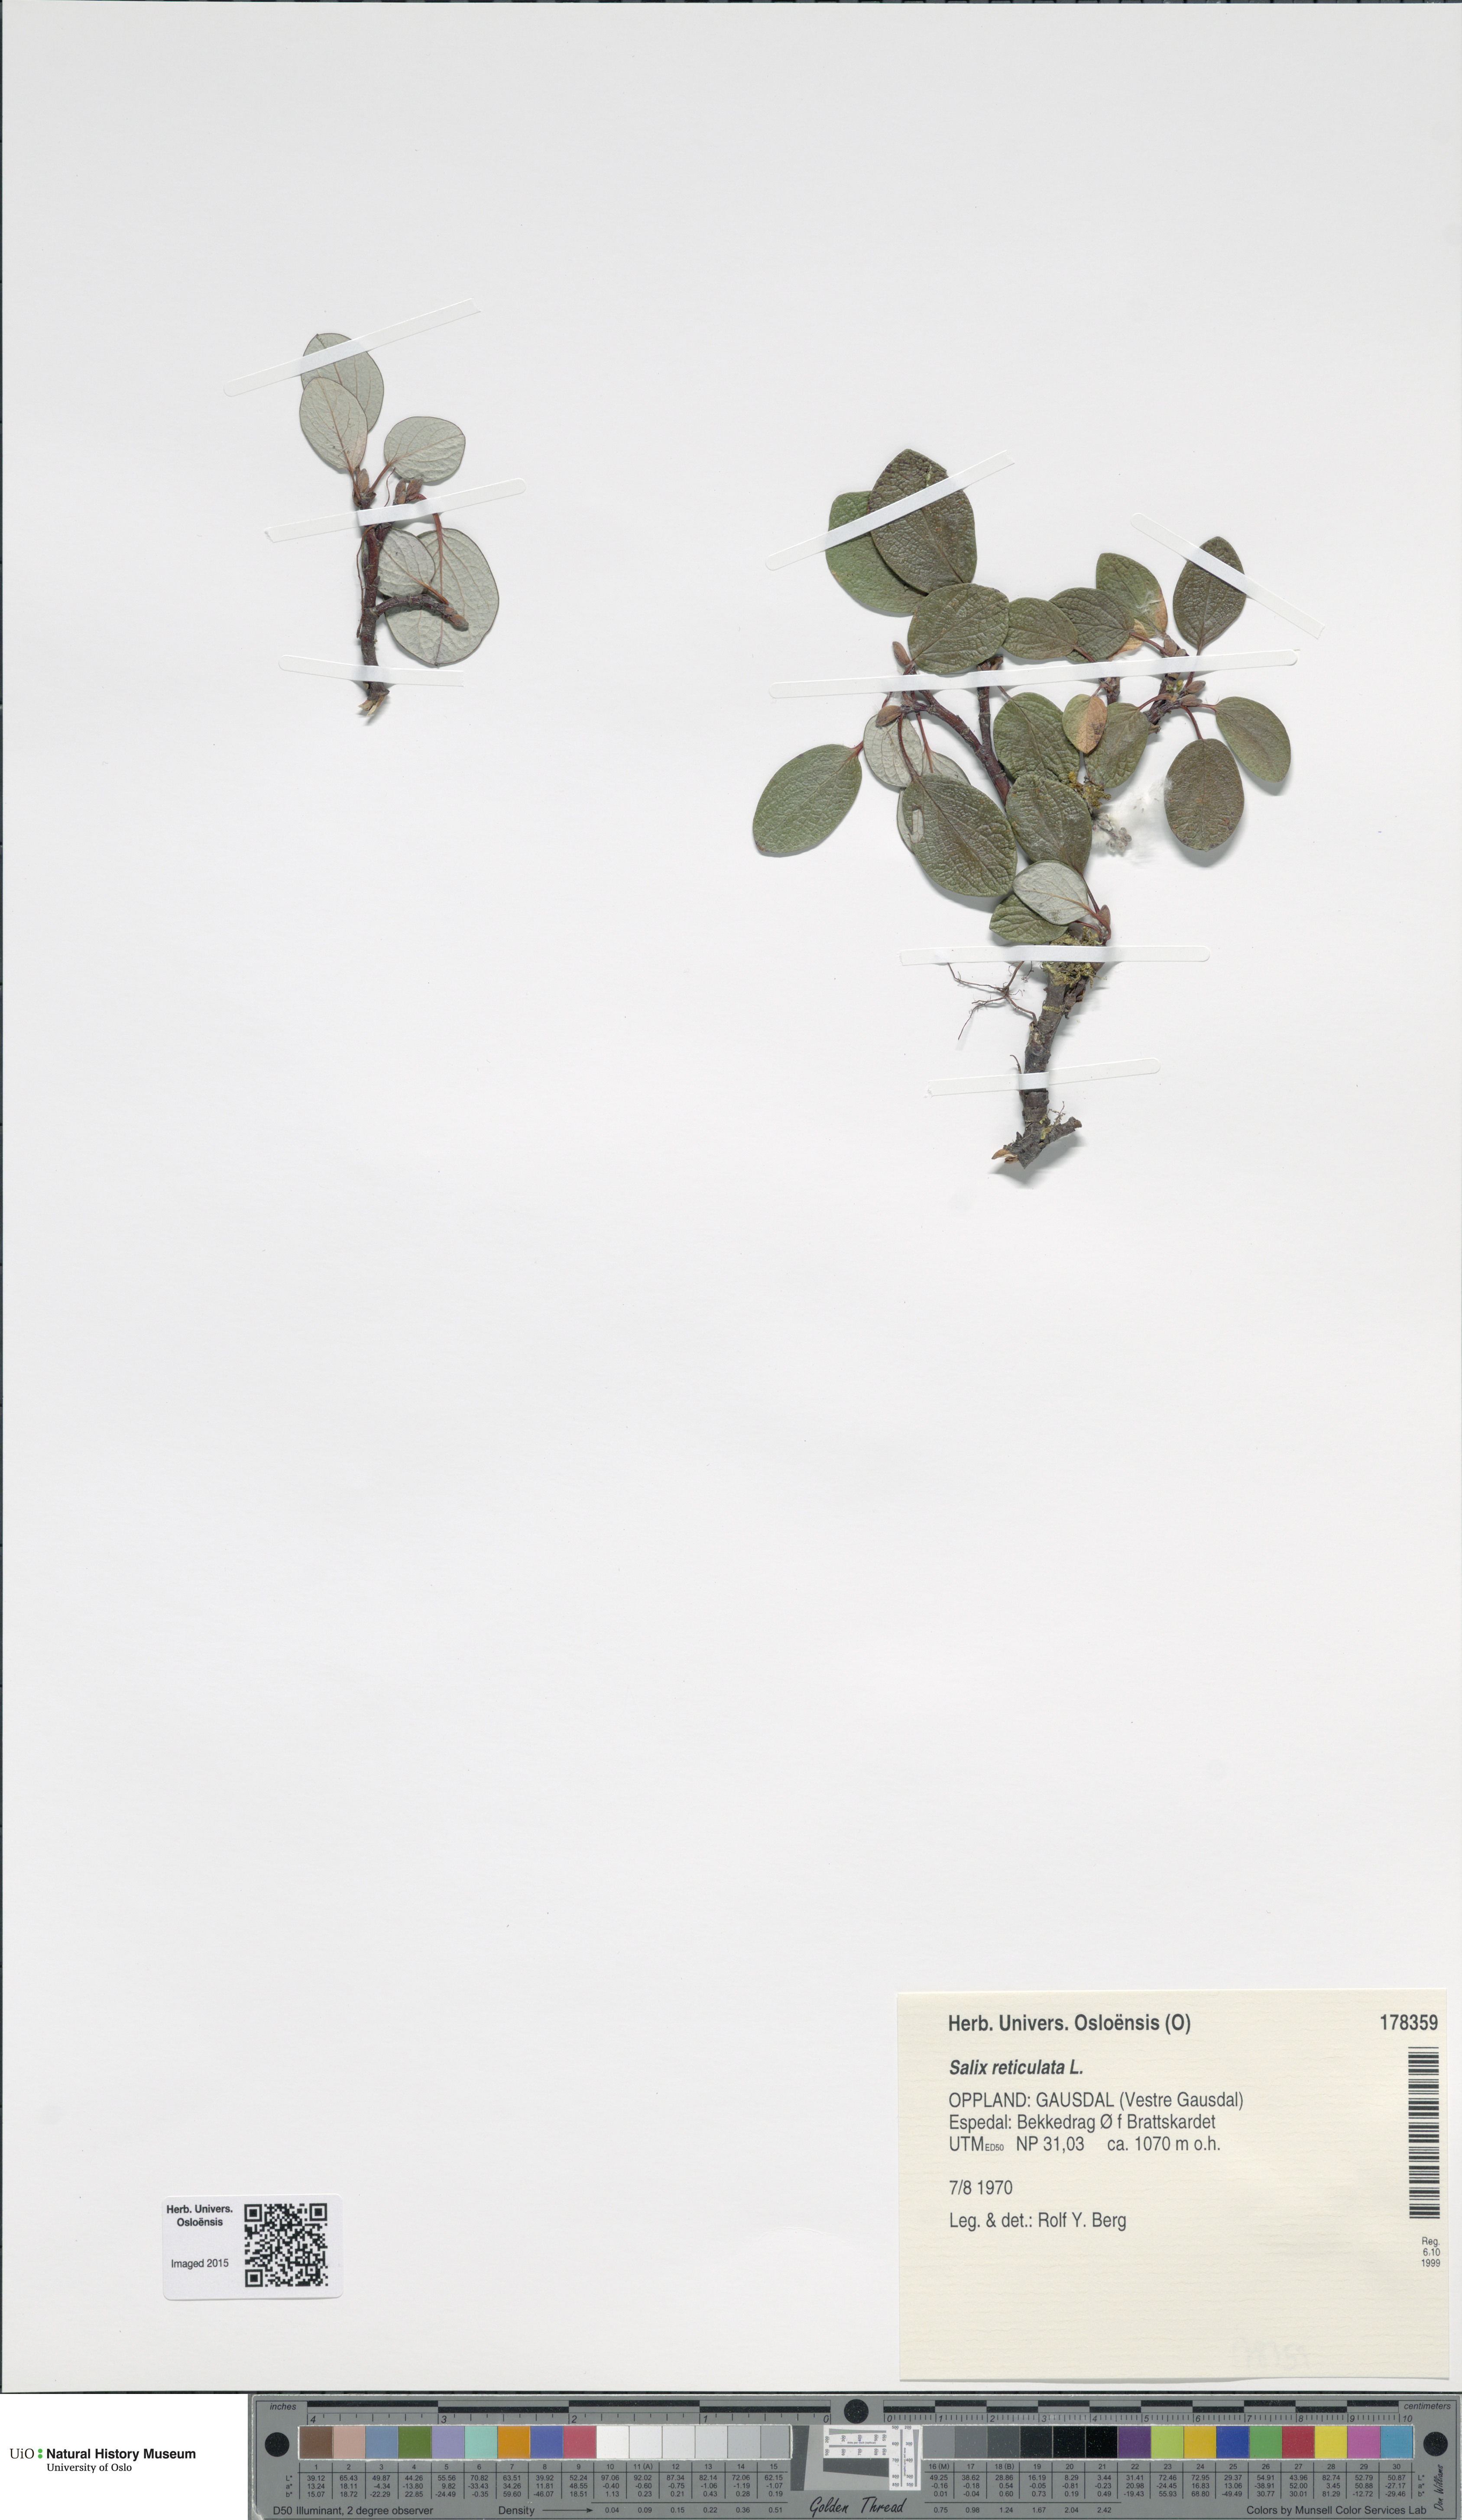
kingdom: Plantae
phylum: Tracheophyta
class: Magnoliopsida
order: Malpighiales
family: Salicaceae
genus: Salix
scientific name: Salix reticulata
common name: Net-leaved willow
